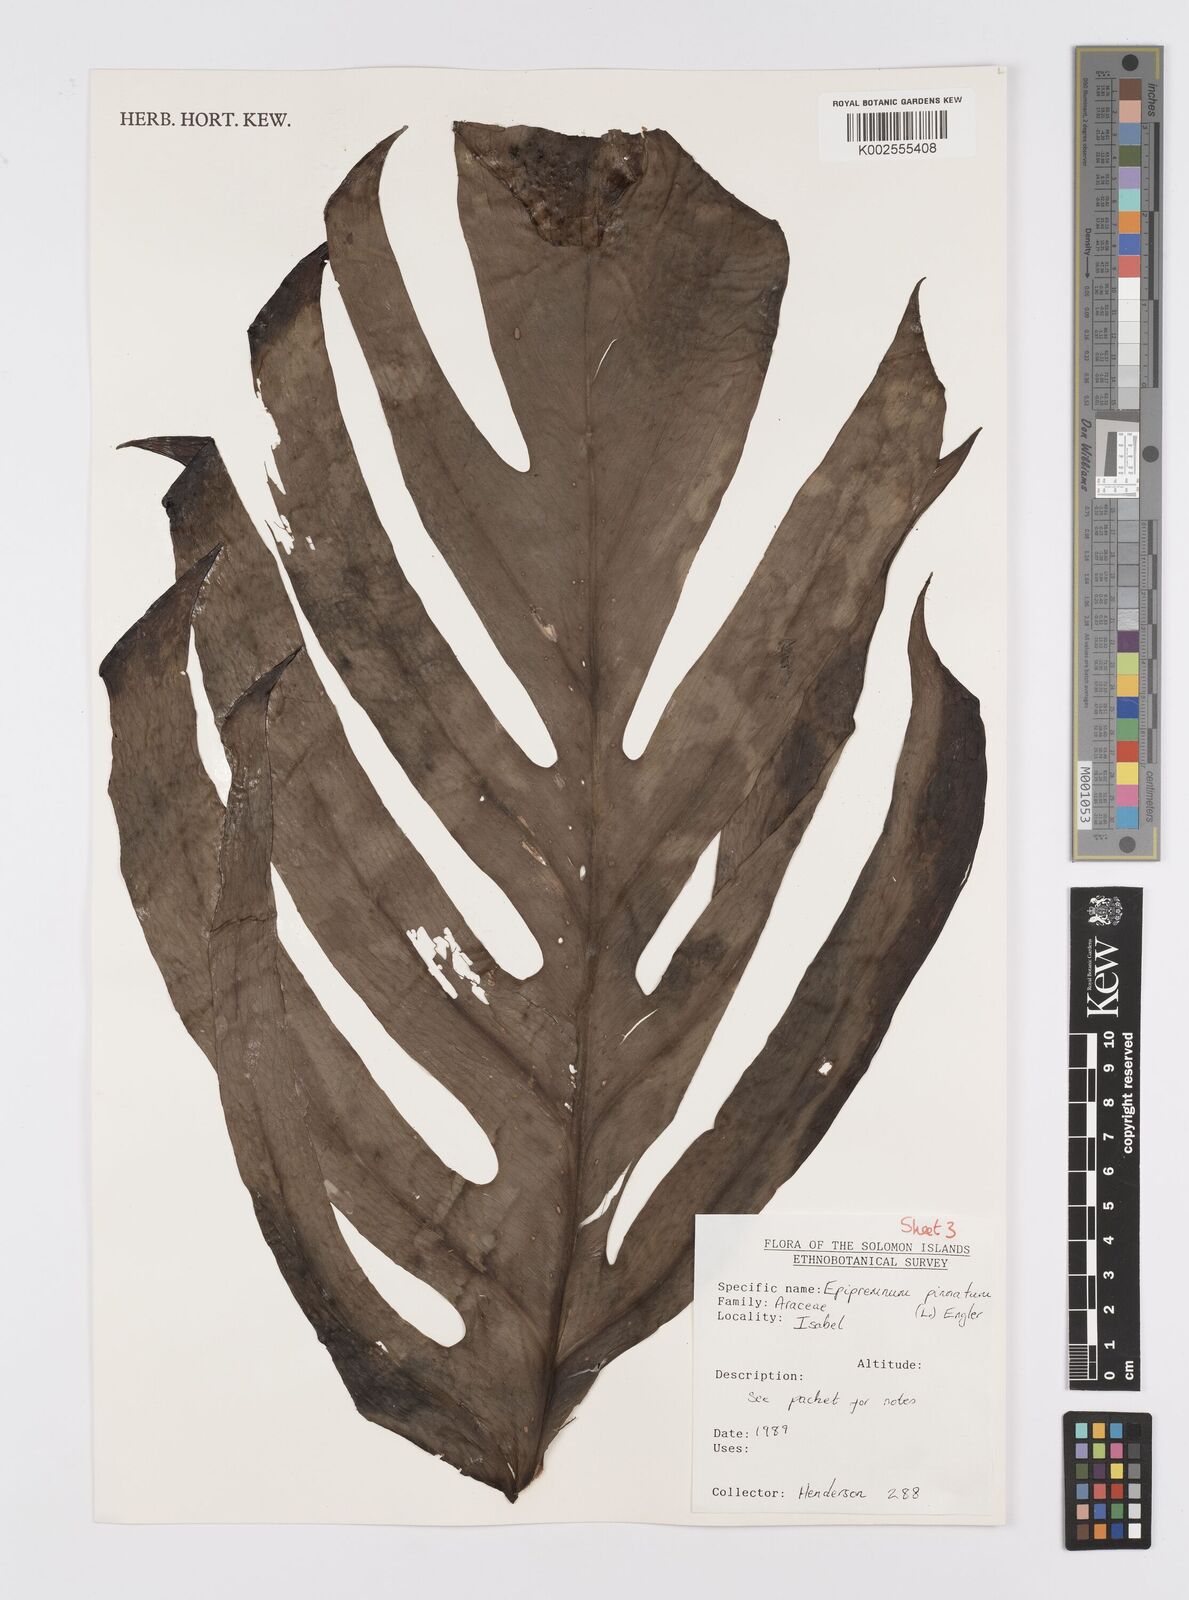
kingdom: Plantae
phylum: Tracheophyta
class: Liliopsida
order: Alismatales
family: Araceae
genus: Epipremnum
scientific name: Epipremnum pinnatum
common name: Centipede tongavine
